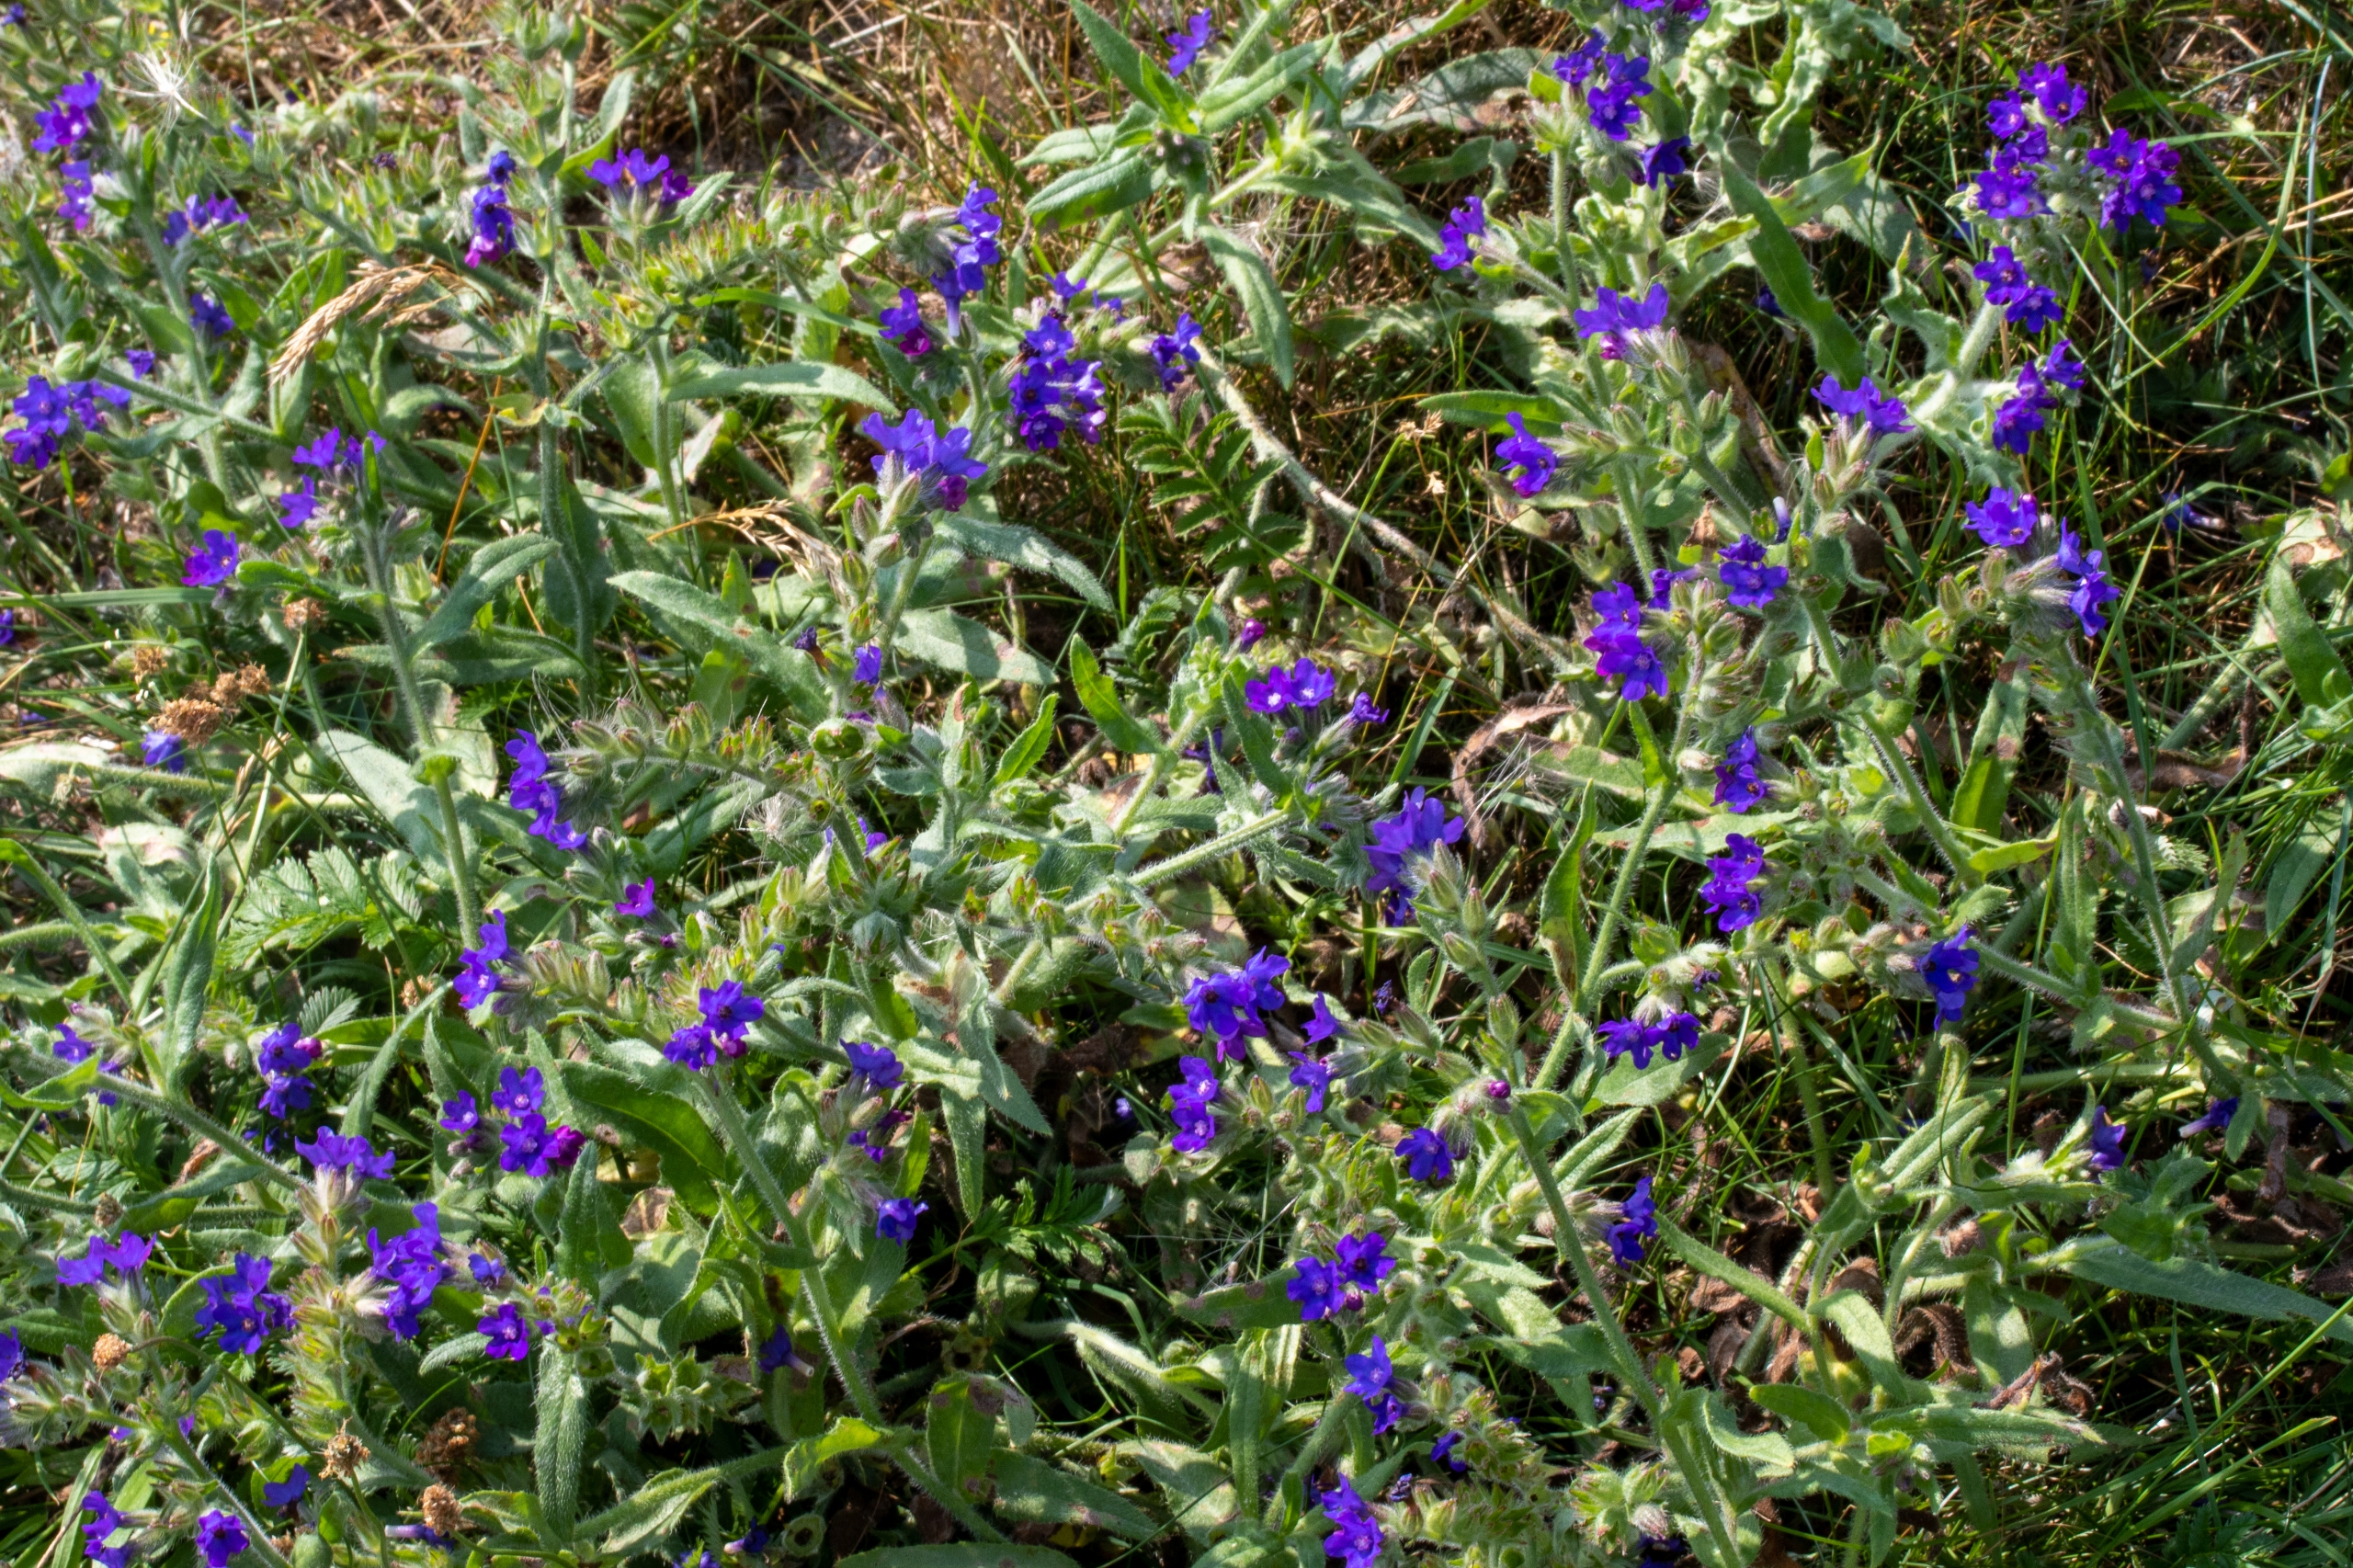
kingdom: Plantae
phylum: Tracheophyta
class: Magnoliopsida
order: Boraginales
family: Boraginaceae
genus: Anchusa
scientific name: Anchusa officinalis
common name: Læge-oksetunge
